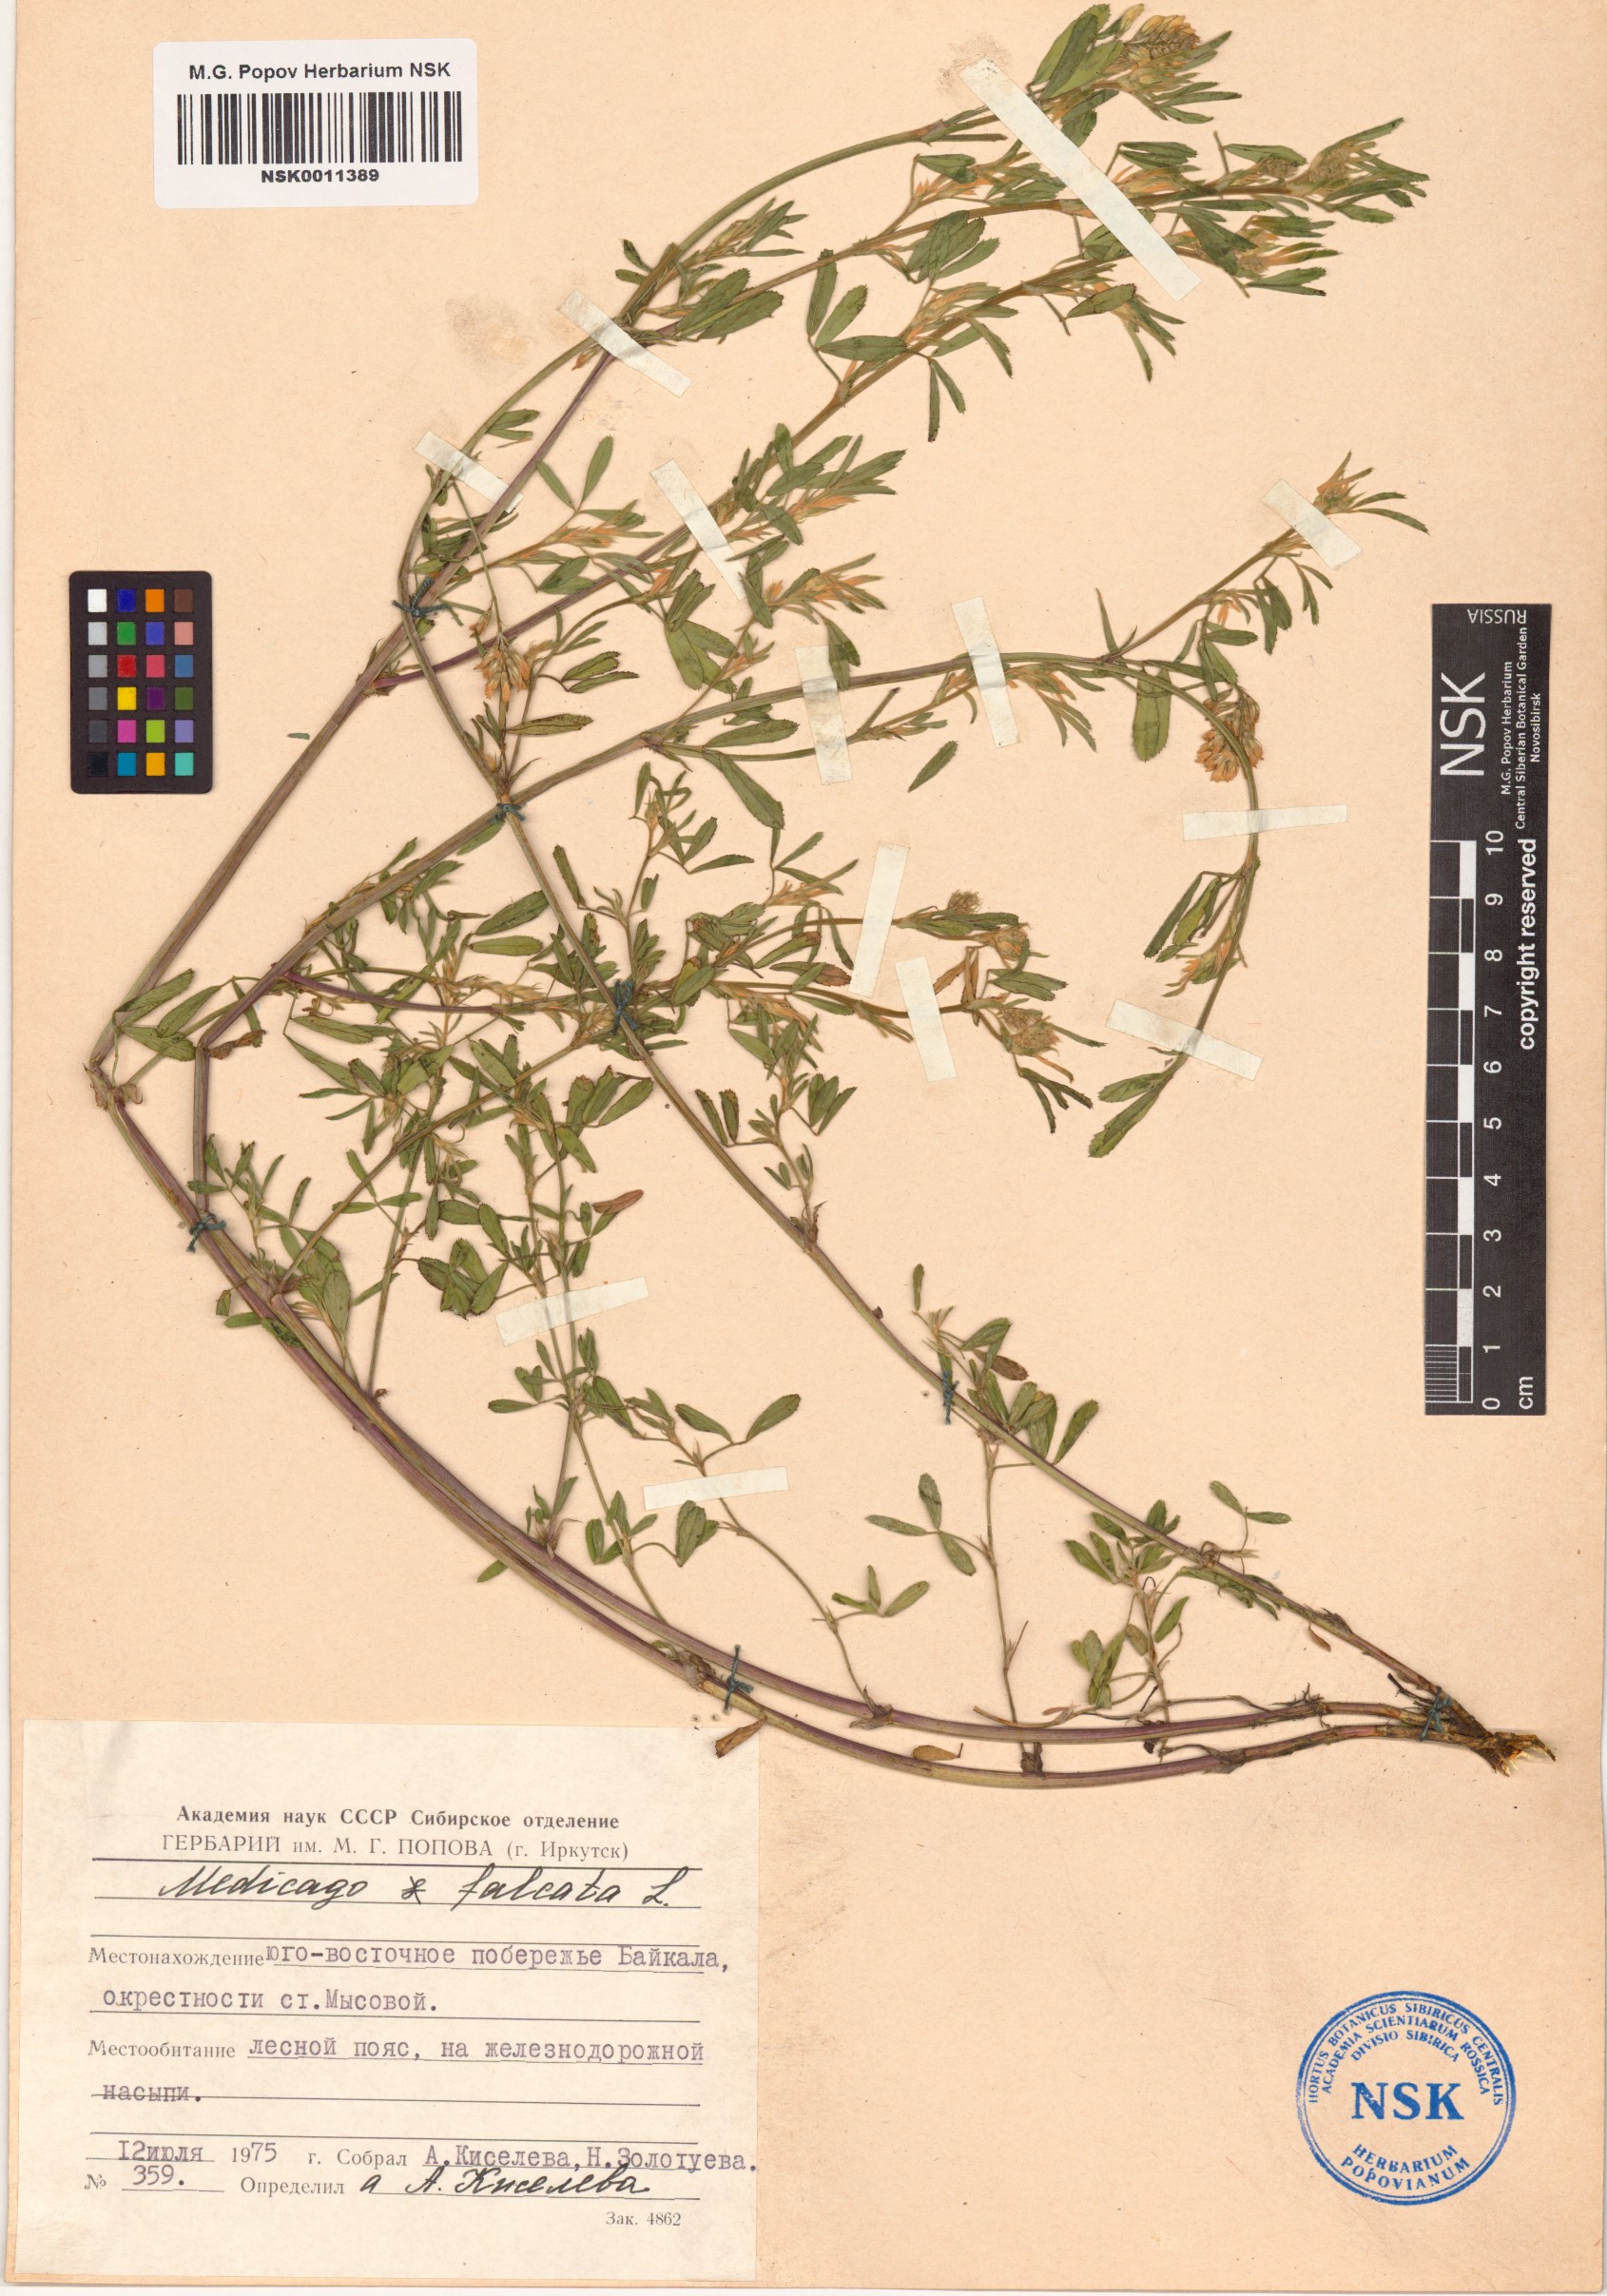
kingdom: Plantae
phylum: Tracheophyta
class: Magnoliopsida
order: Fabales
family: Fabaceae
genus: Medicago
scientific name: Medicago falcata
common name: Sickle medick
